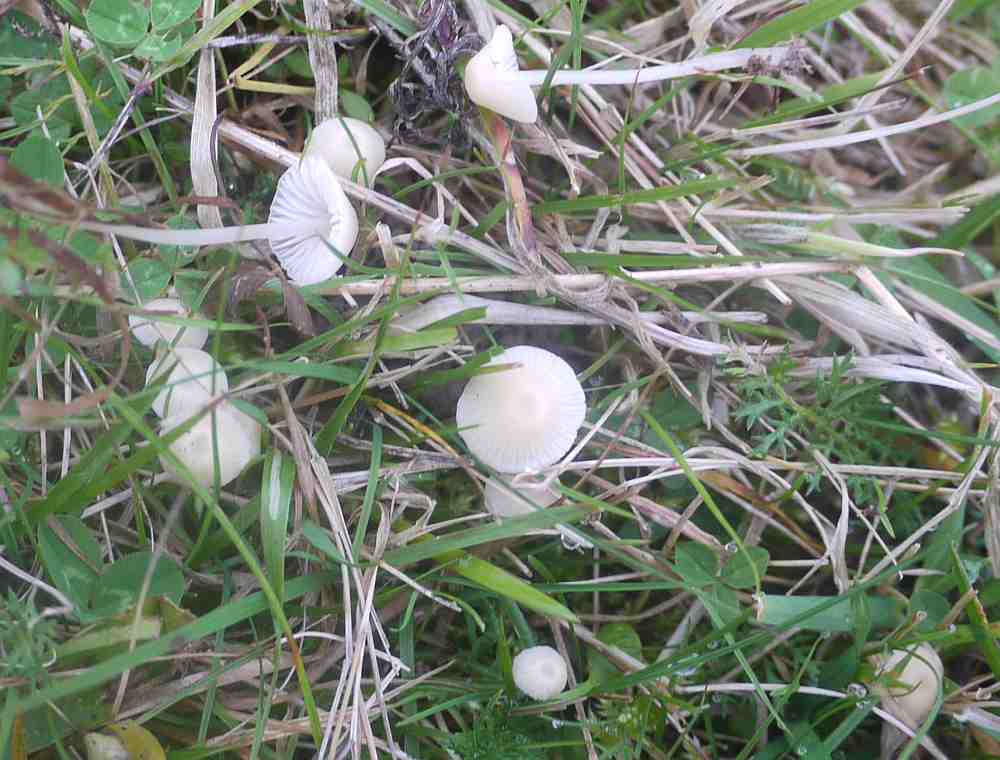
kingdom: Fungi
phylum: Basidiomycota
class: Agaricomycetes
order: Agaricales
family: Mycenaceae
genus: Atheniella
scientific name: Atheniella flavoalba
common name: gulhvid huesvamp
